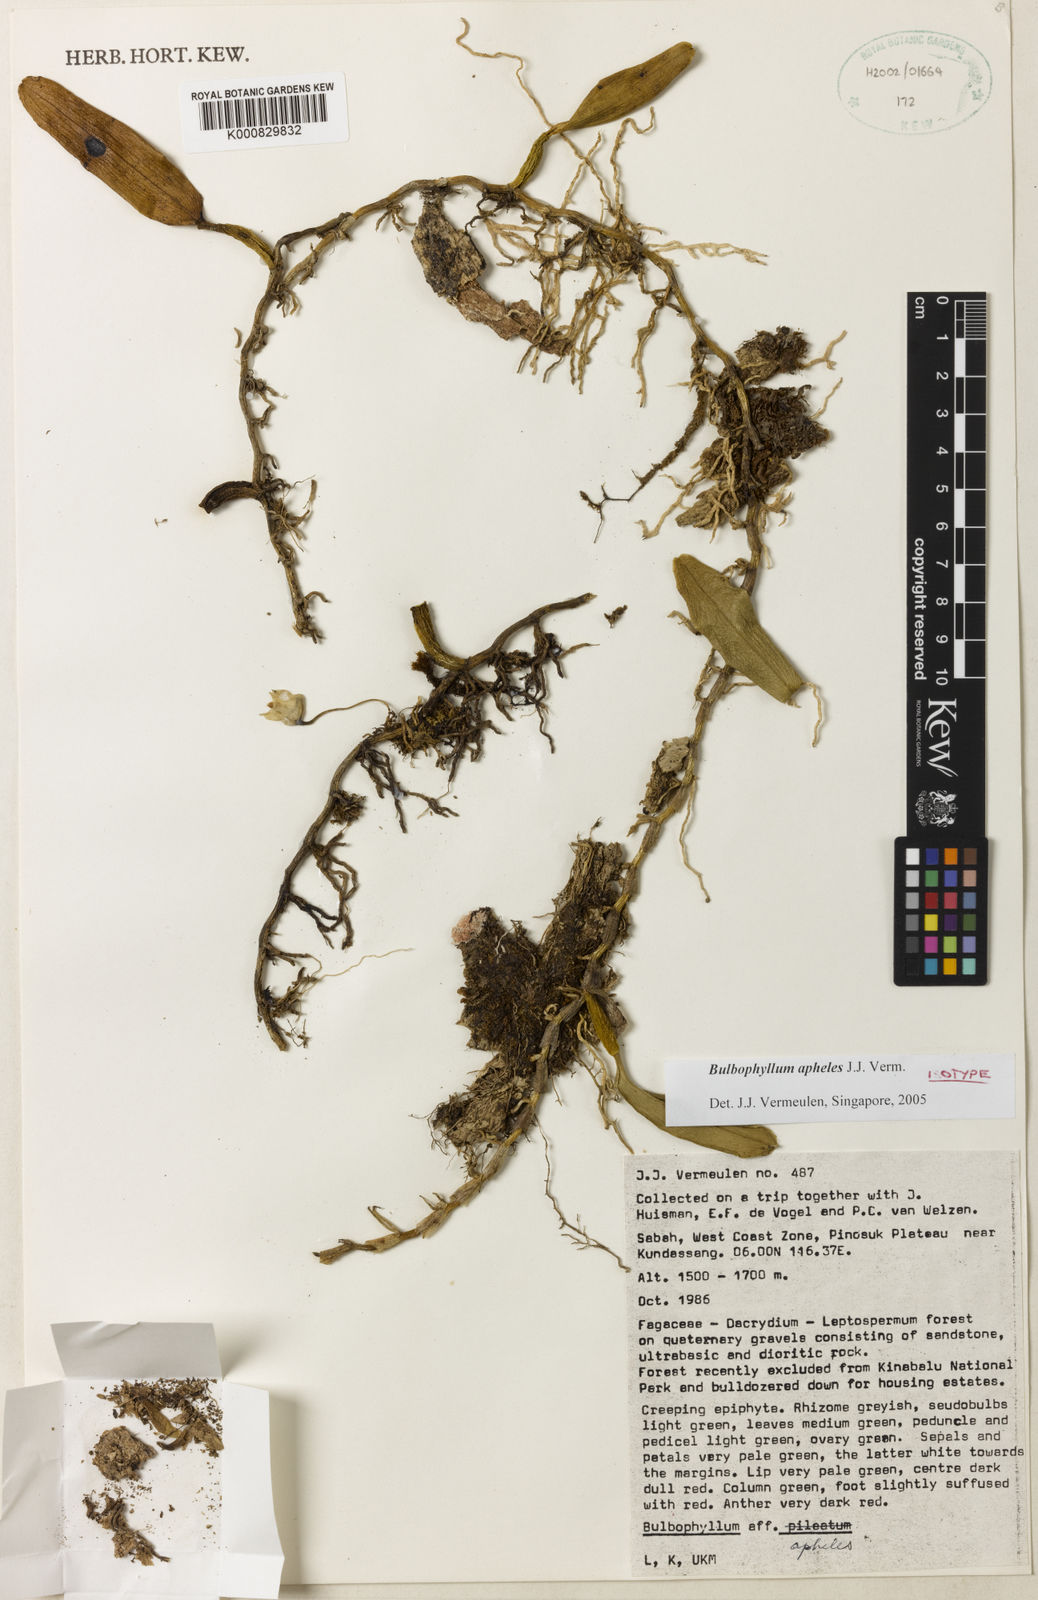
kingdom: Plantae
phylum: Tracheophyta
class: Liliopsida
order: Asparagales
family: Orchidaceae
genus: Bulbophyllum
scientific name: Bulbophyllum apheles
